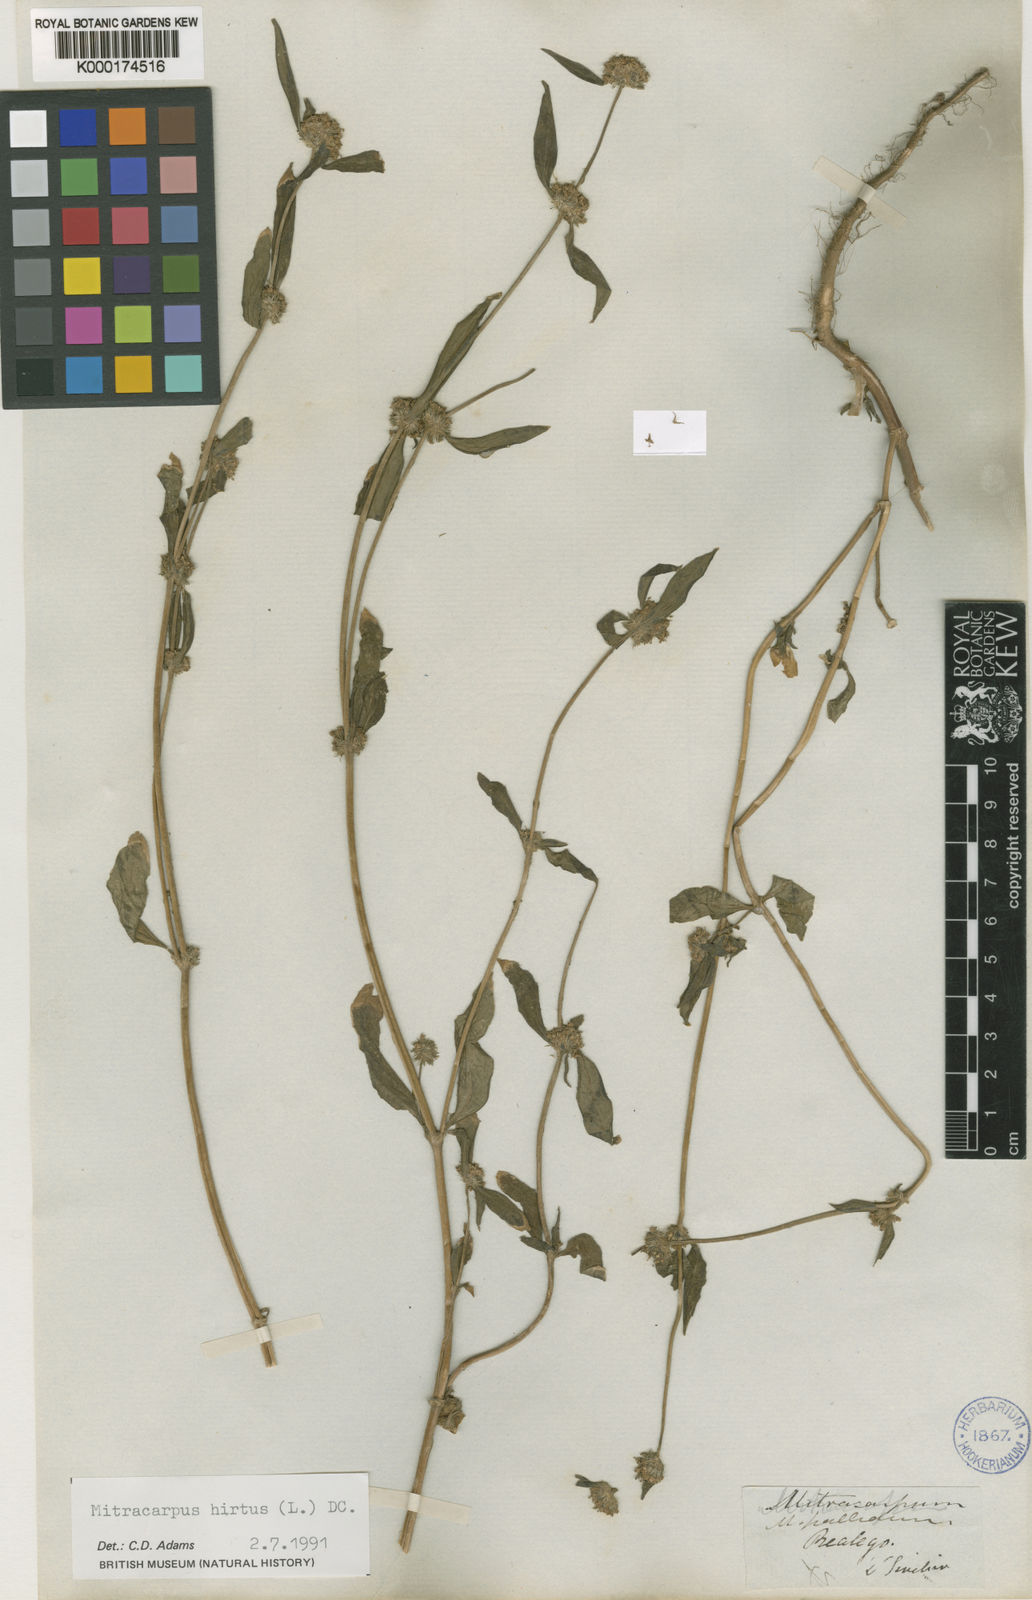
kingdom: Plantae
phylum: Tracheophyta
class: Magnoliopsida
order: Gentianales
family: Rubiaceae
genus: Mitracarpus
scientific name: Mitracarpus hirtus
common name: Tropical girdlepod
